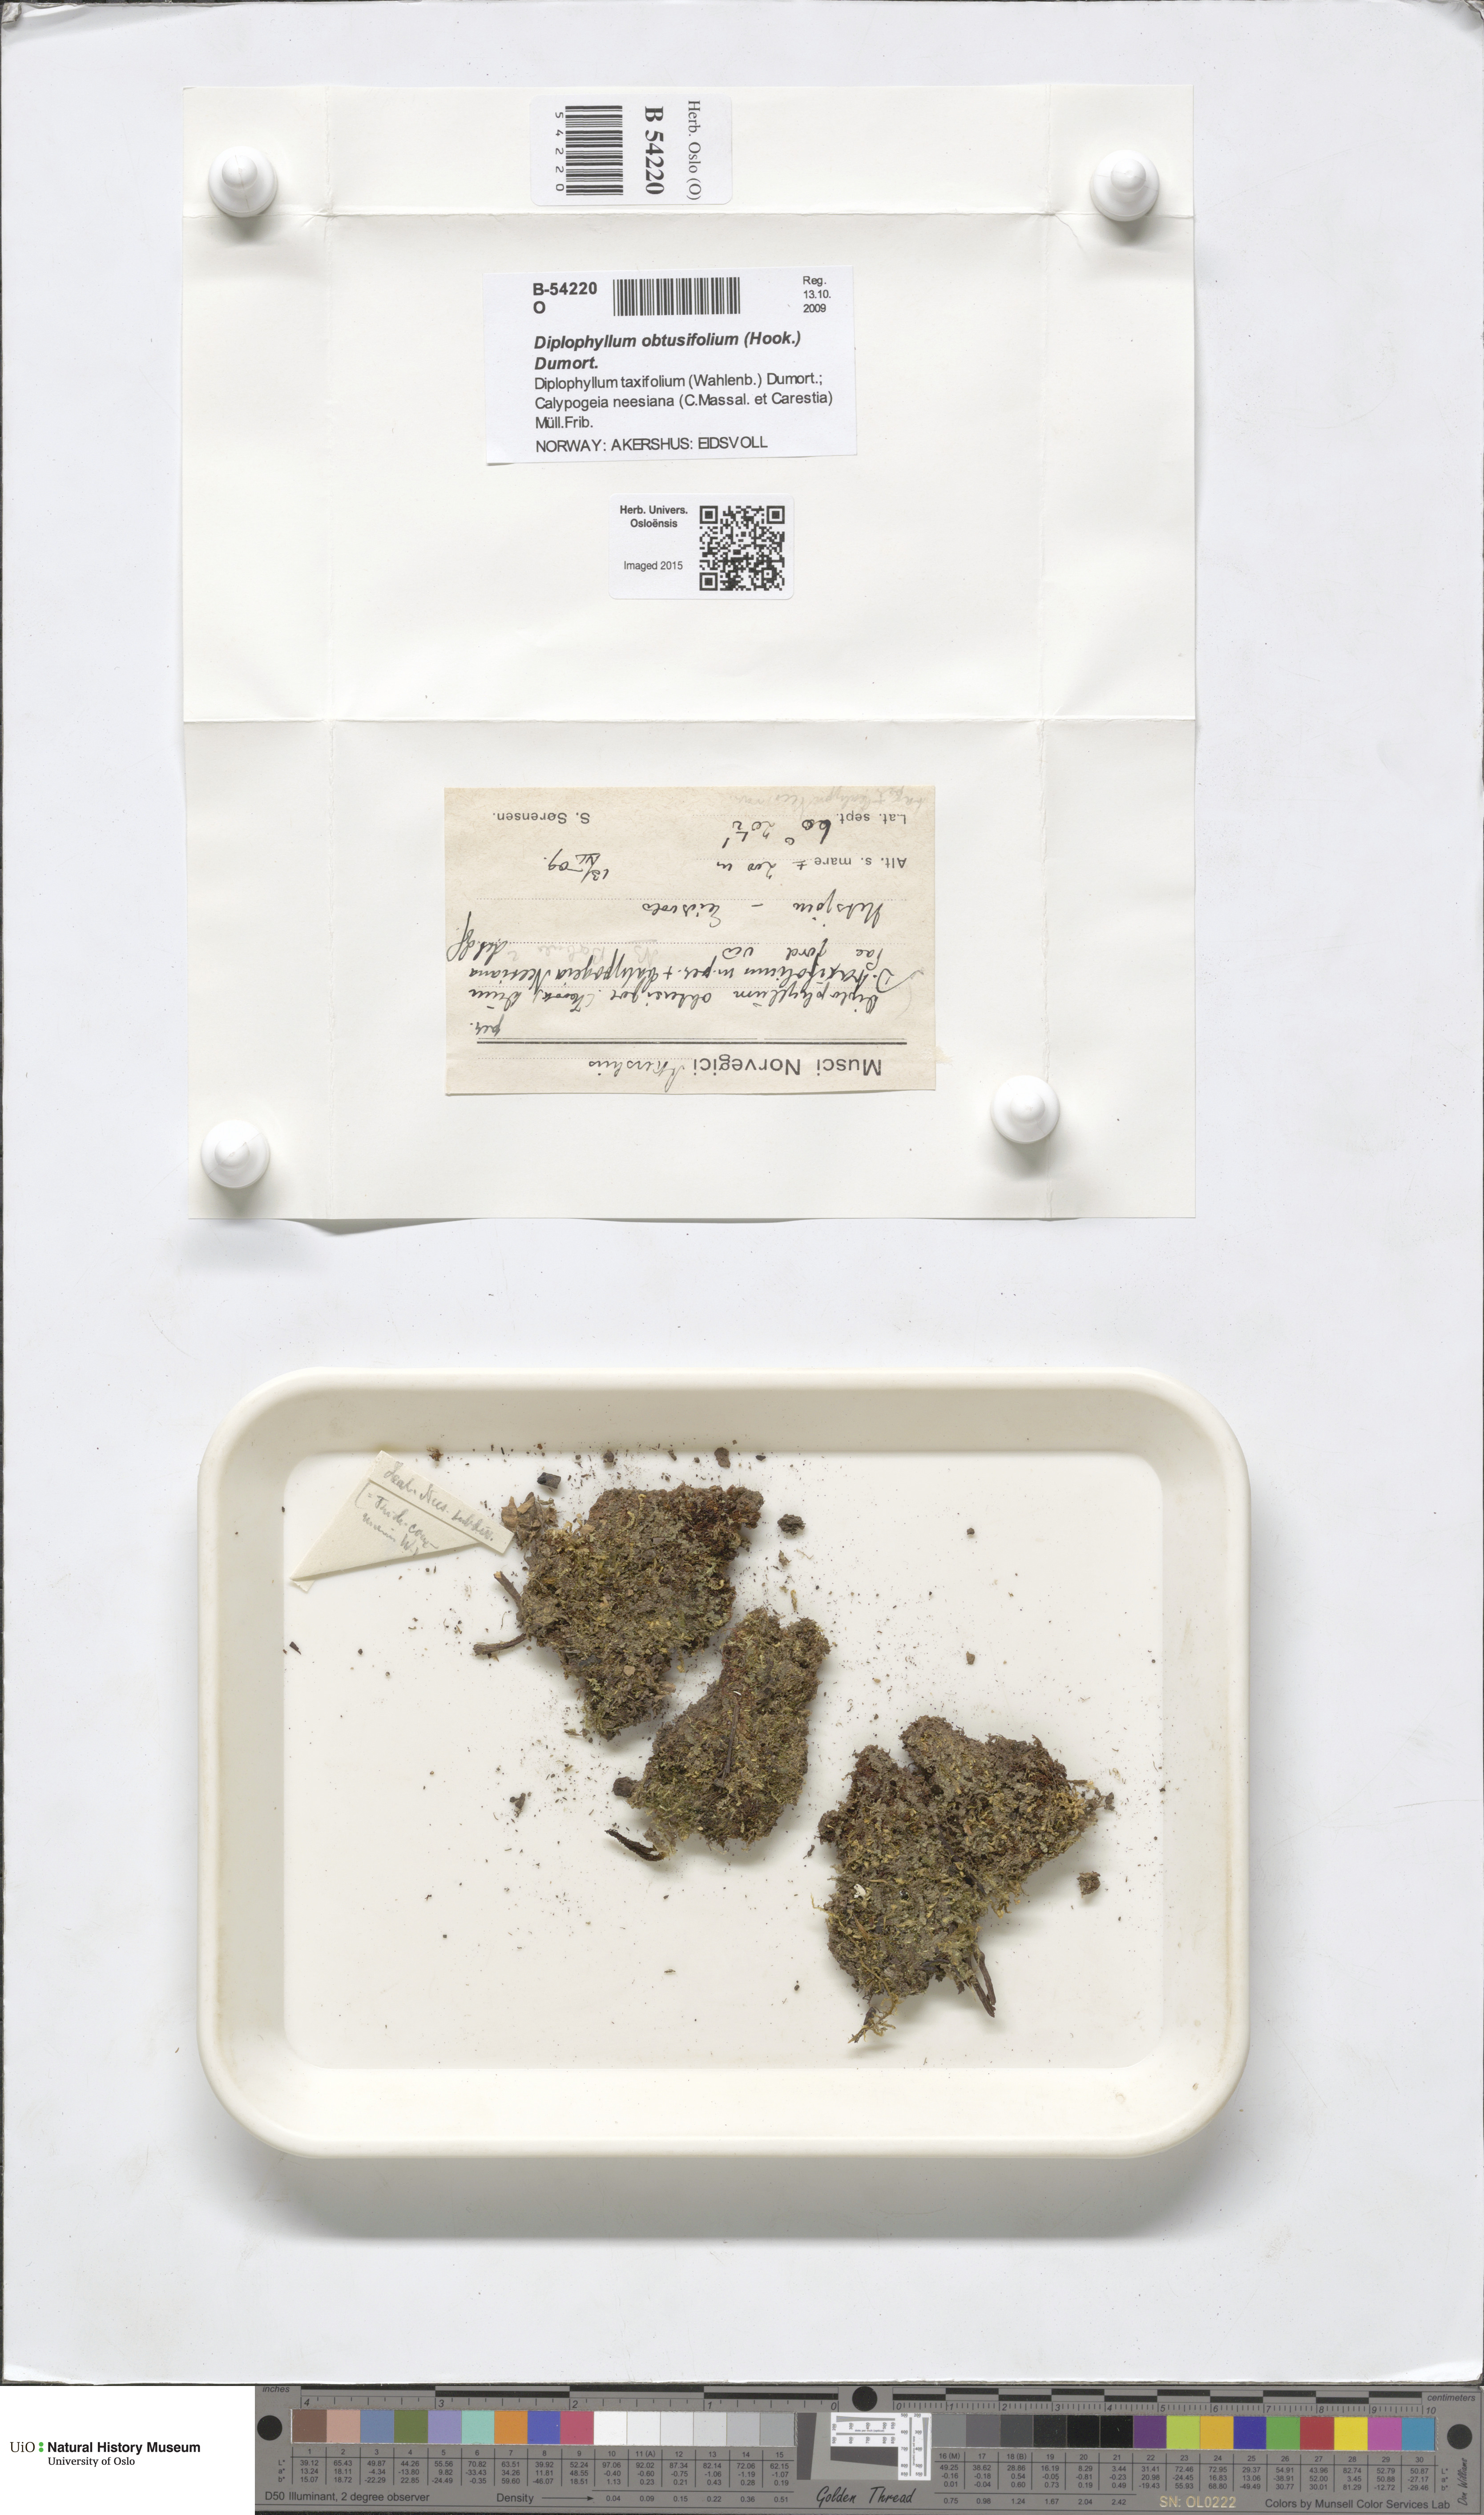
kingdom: Plantae
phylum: Marchantiophyta
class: Jungermanniopsida
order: Jungermanniales
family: Scapaniaceae
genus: Diplophyllum
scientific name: Diplophyllum obtusifolium
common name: Blunt-leaved earwort
